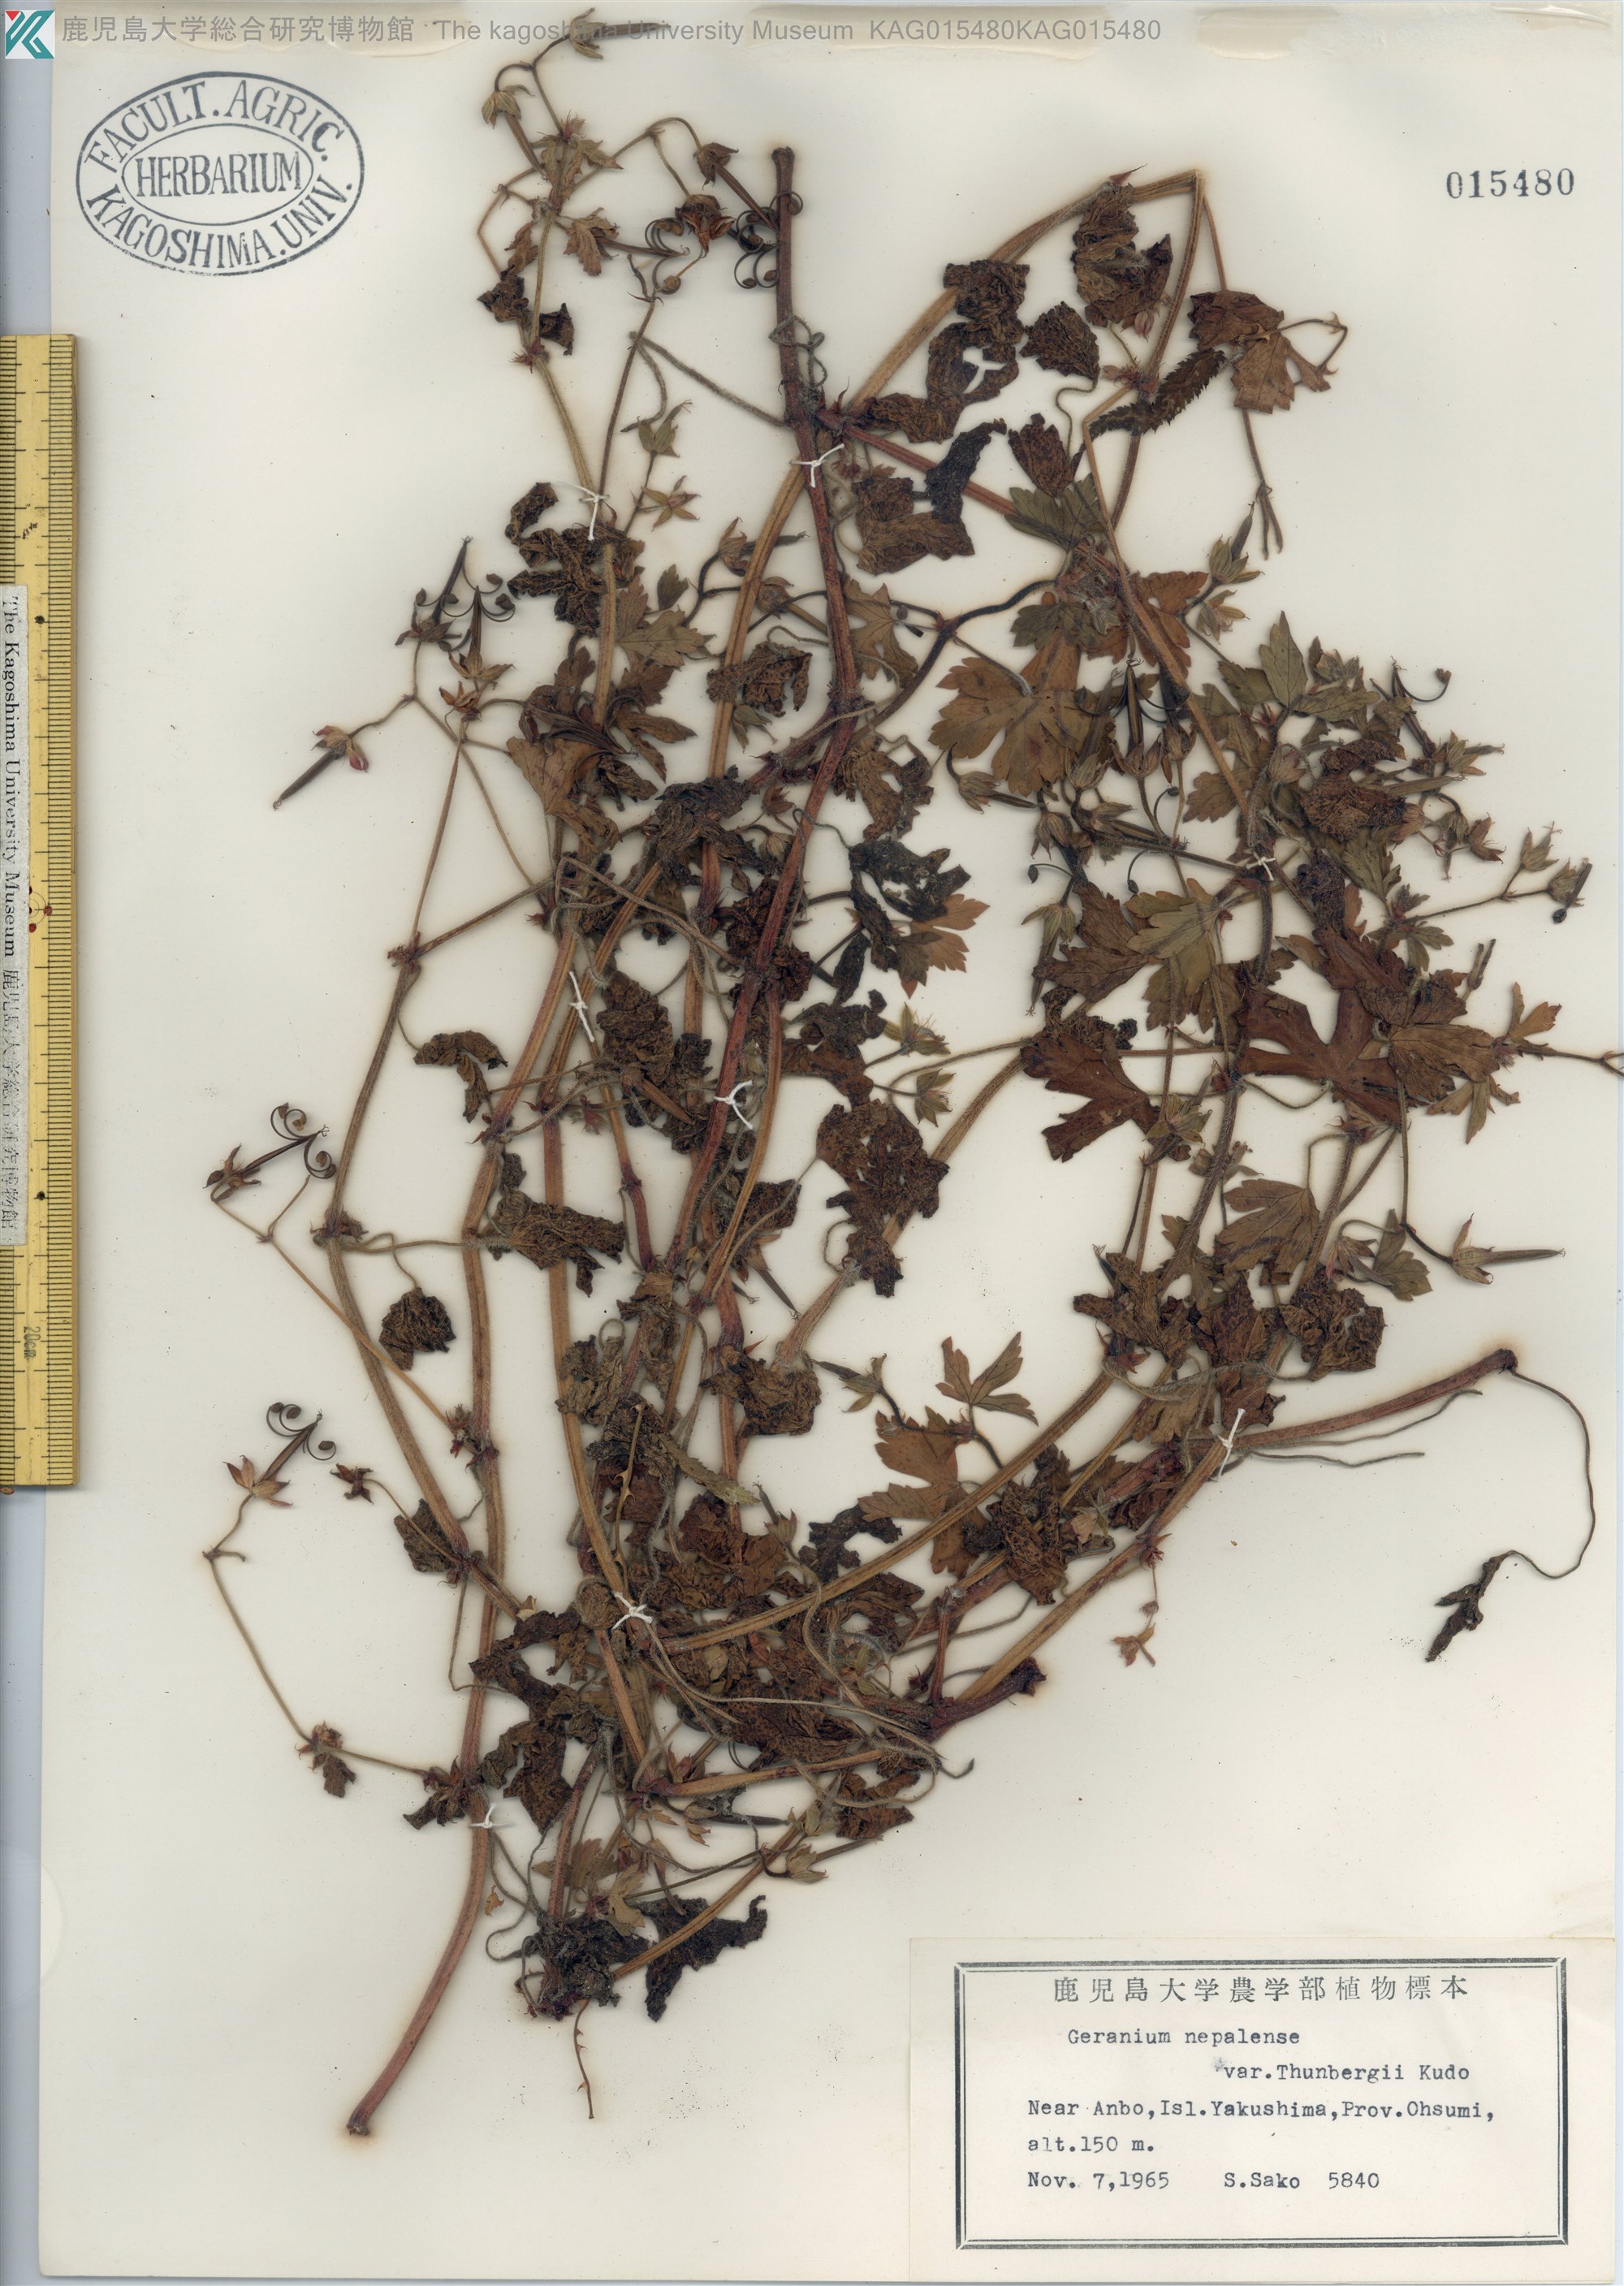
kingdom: Plantae
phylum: Tracheophyta
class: Magnoliopsida
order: Geraniales
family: Geraniaceae
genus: Geranium
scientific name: Geranium thunbergii
